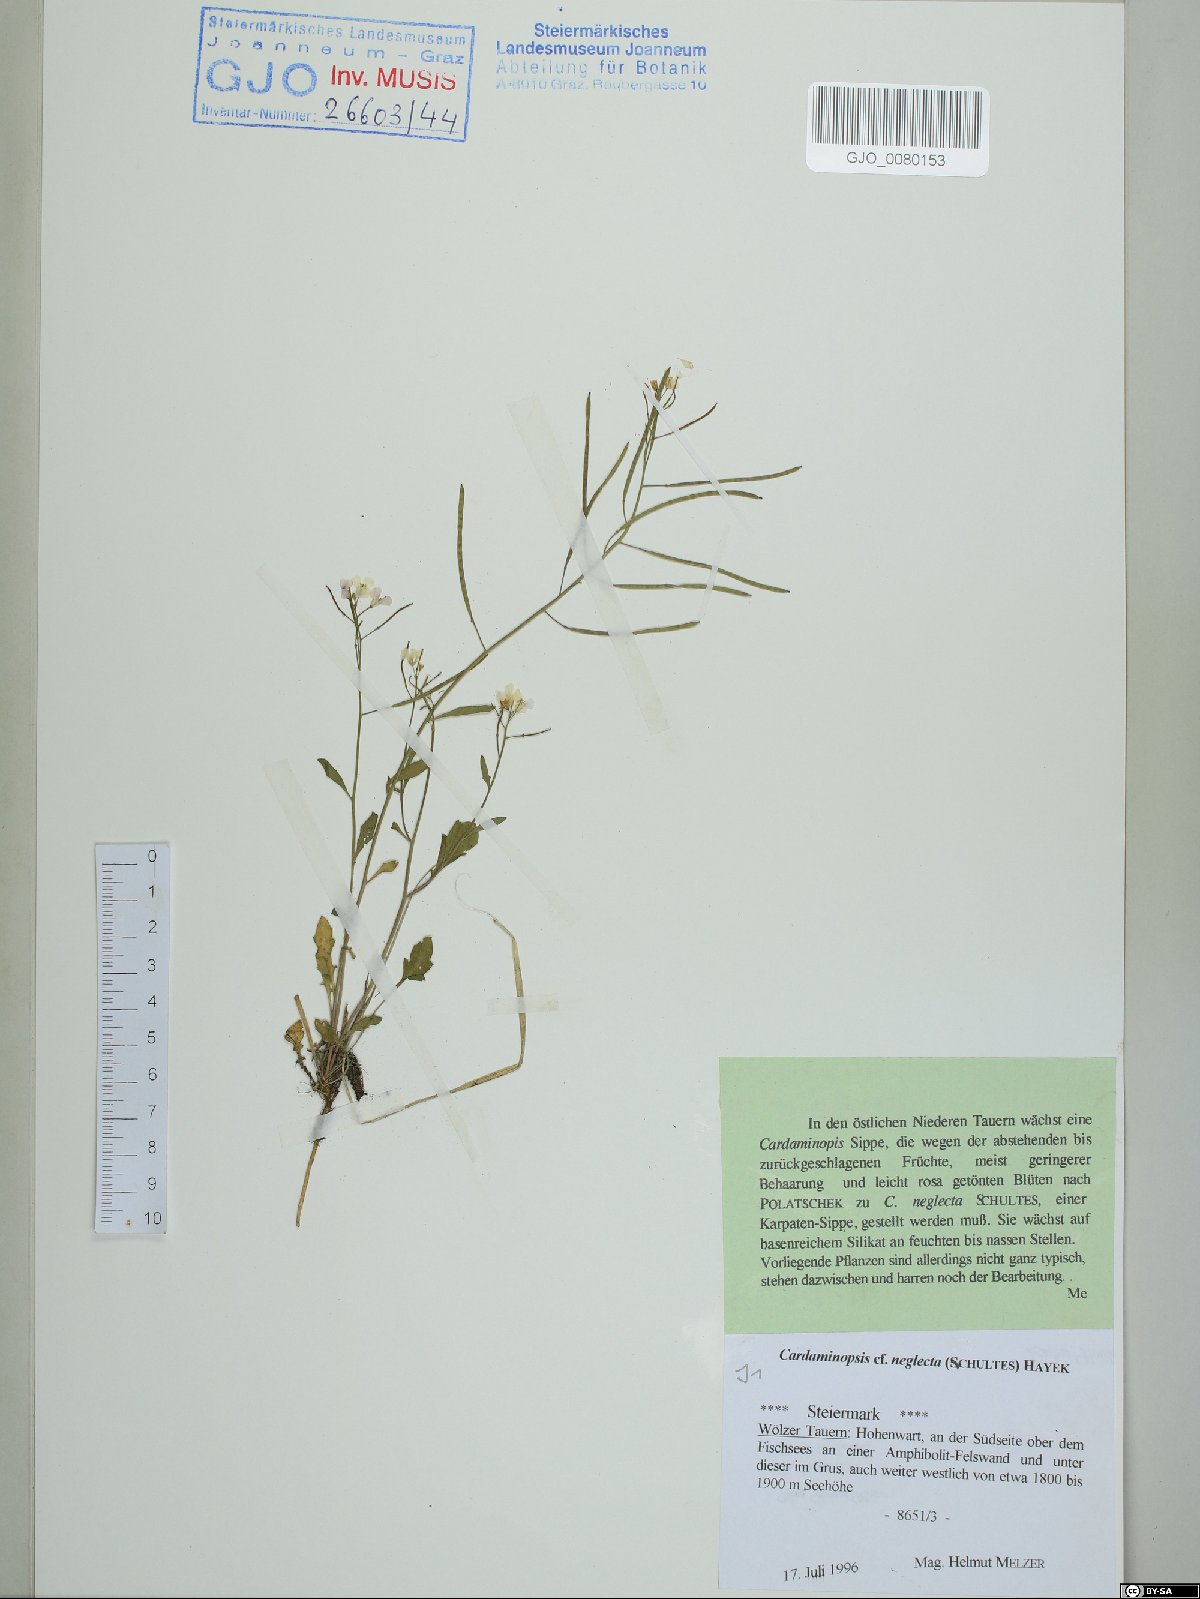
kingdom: Plantae
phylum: Tracheophyta
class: Magnoliopsida
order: Brassicales
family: Brassicaceae
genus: Arabidopsis
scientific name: Arabidopsis neglecta
